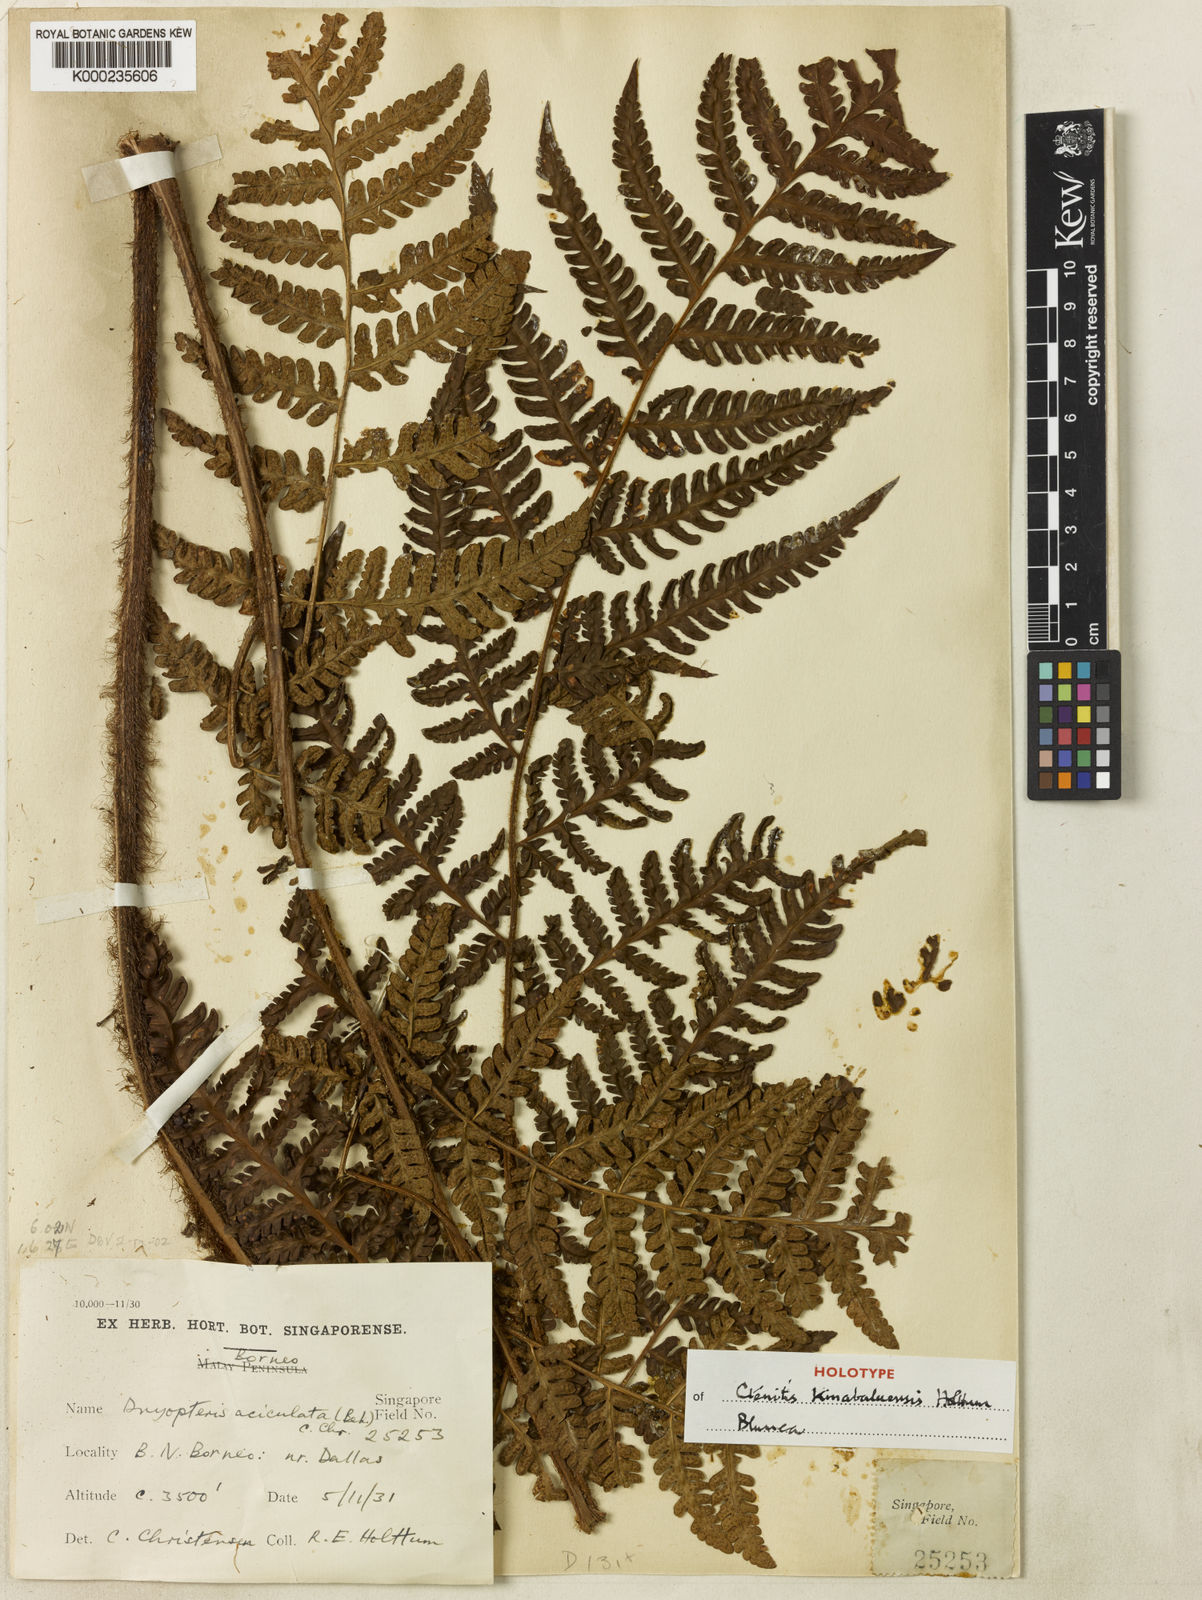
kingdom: Plantae
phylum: Tracheophyta
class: Polypodiopsida
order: Polypodiales
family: Dryopteridaceae
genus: Ctenitis
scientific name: Ctenitis kinabaluensis
